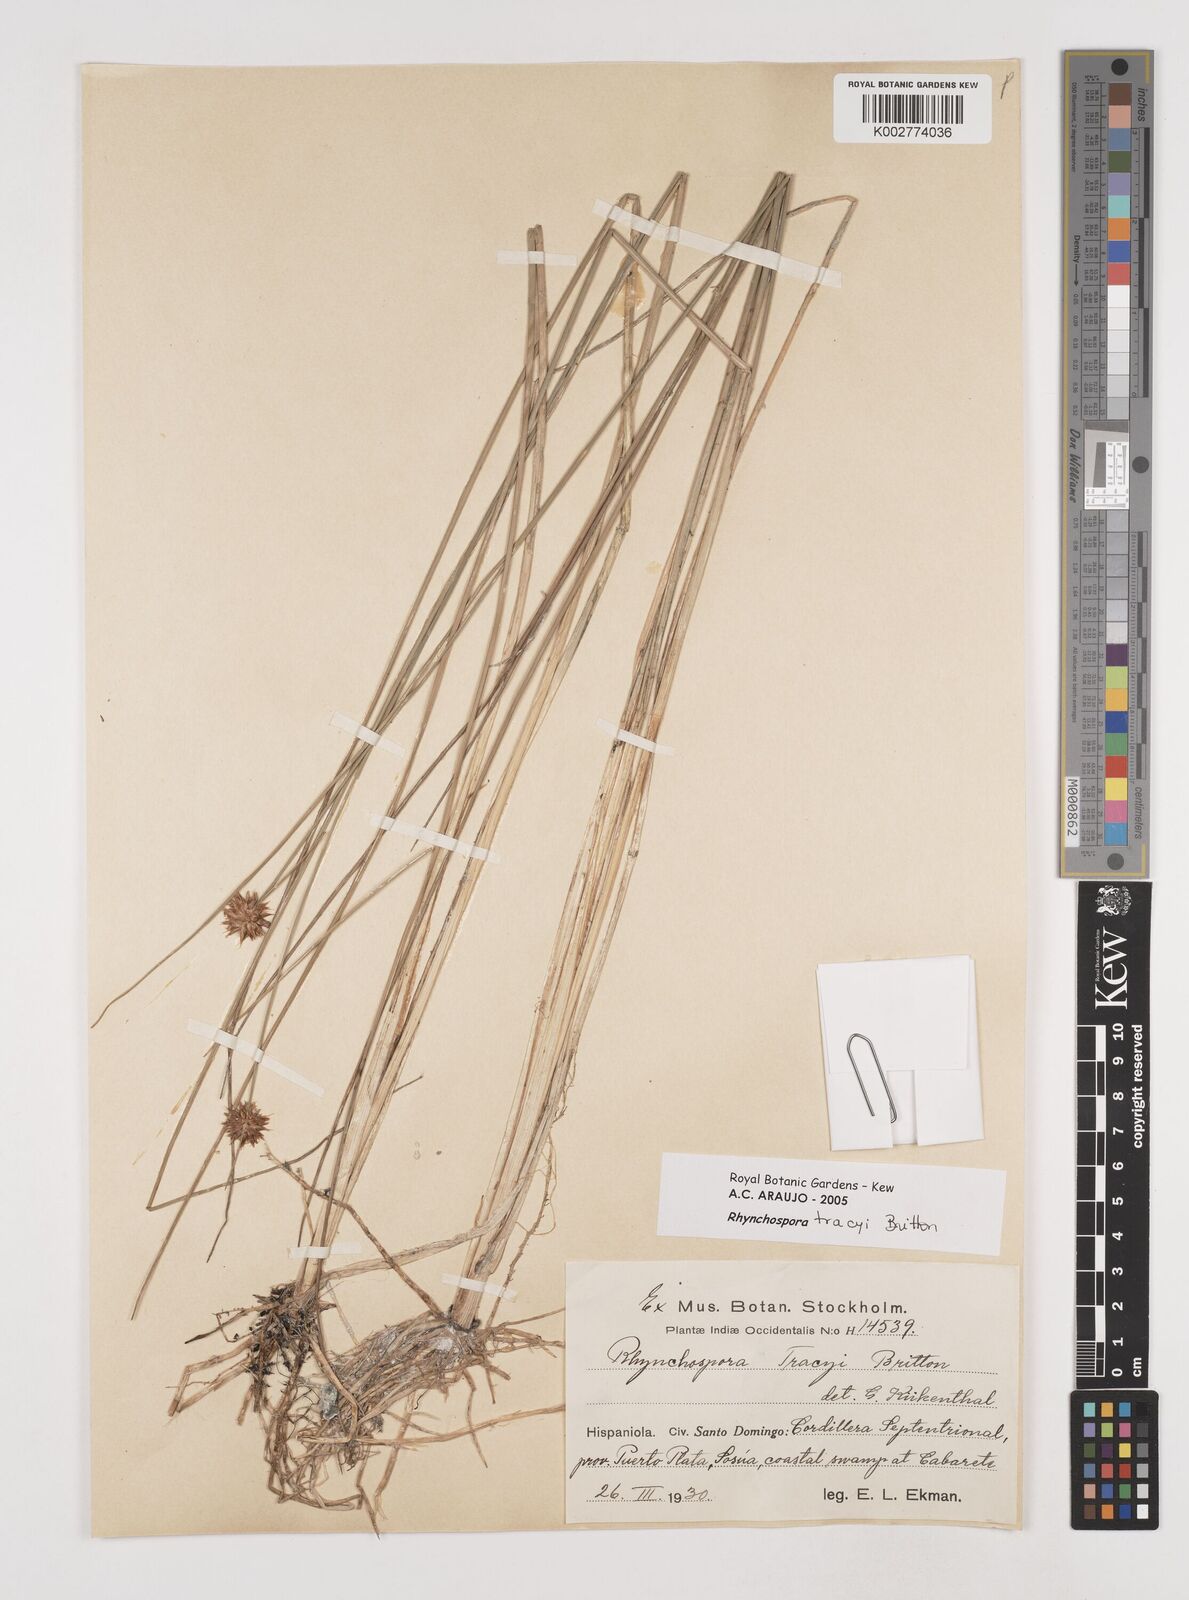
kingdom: Plantae
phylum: Tracheophyta
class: Liliopsida
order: Poales
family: Cyperaceae
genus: Rhynchospora
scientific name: Rhynchospora tracyi
